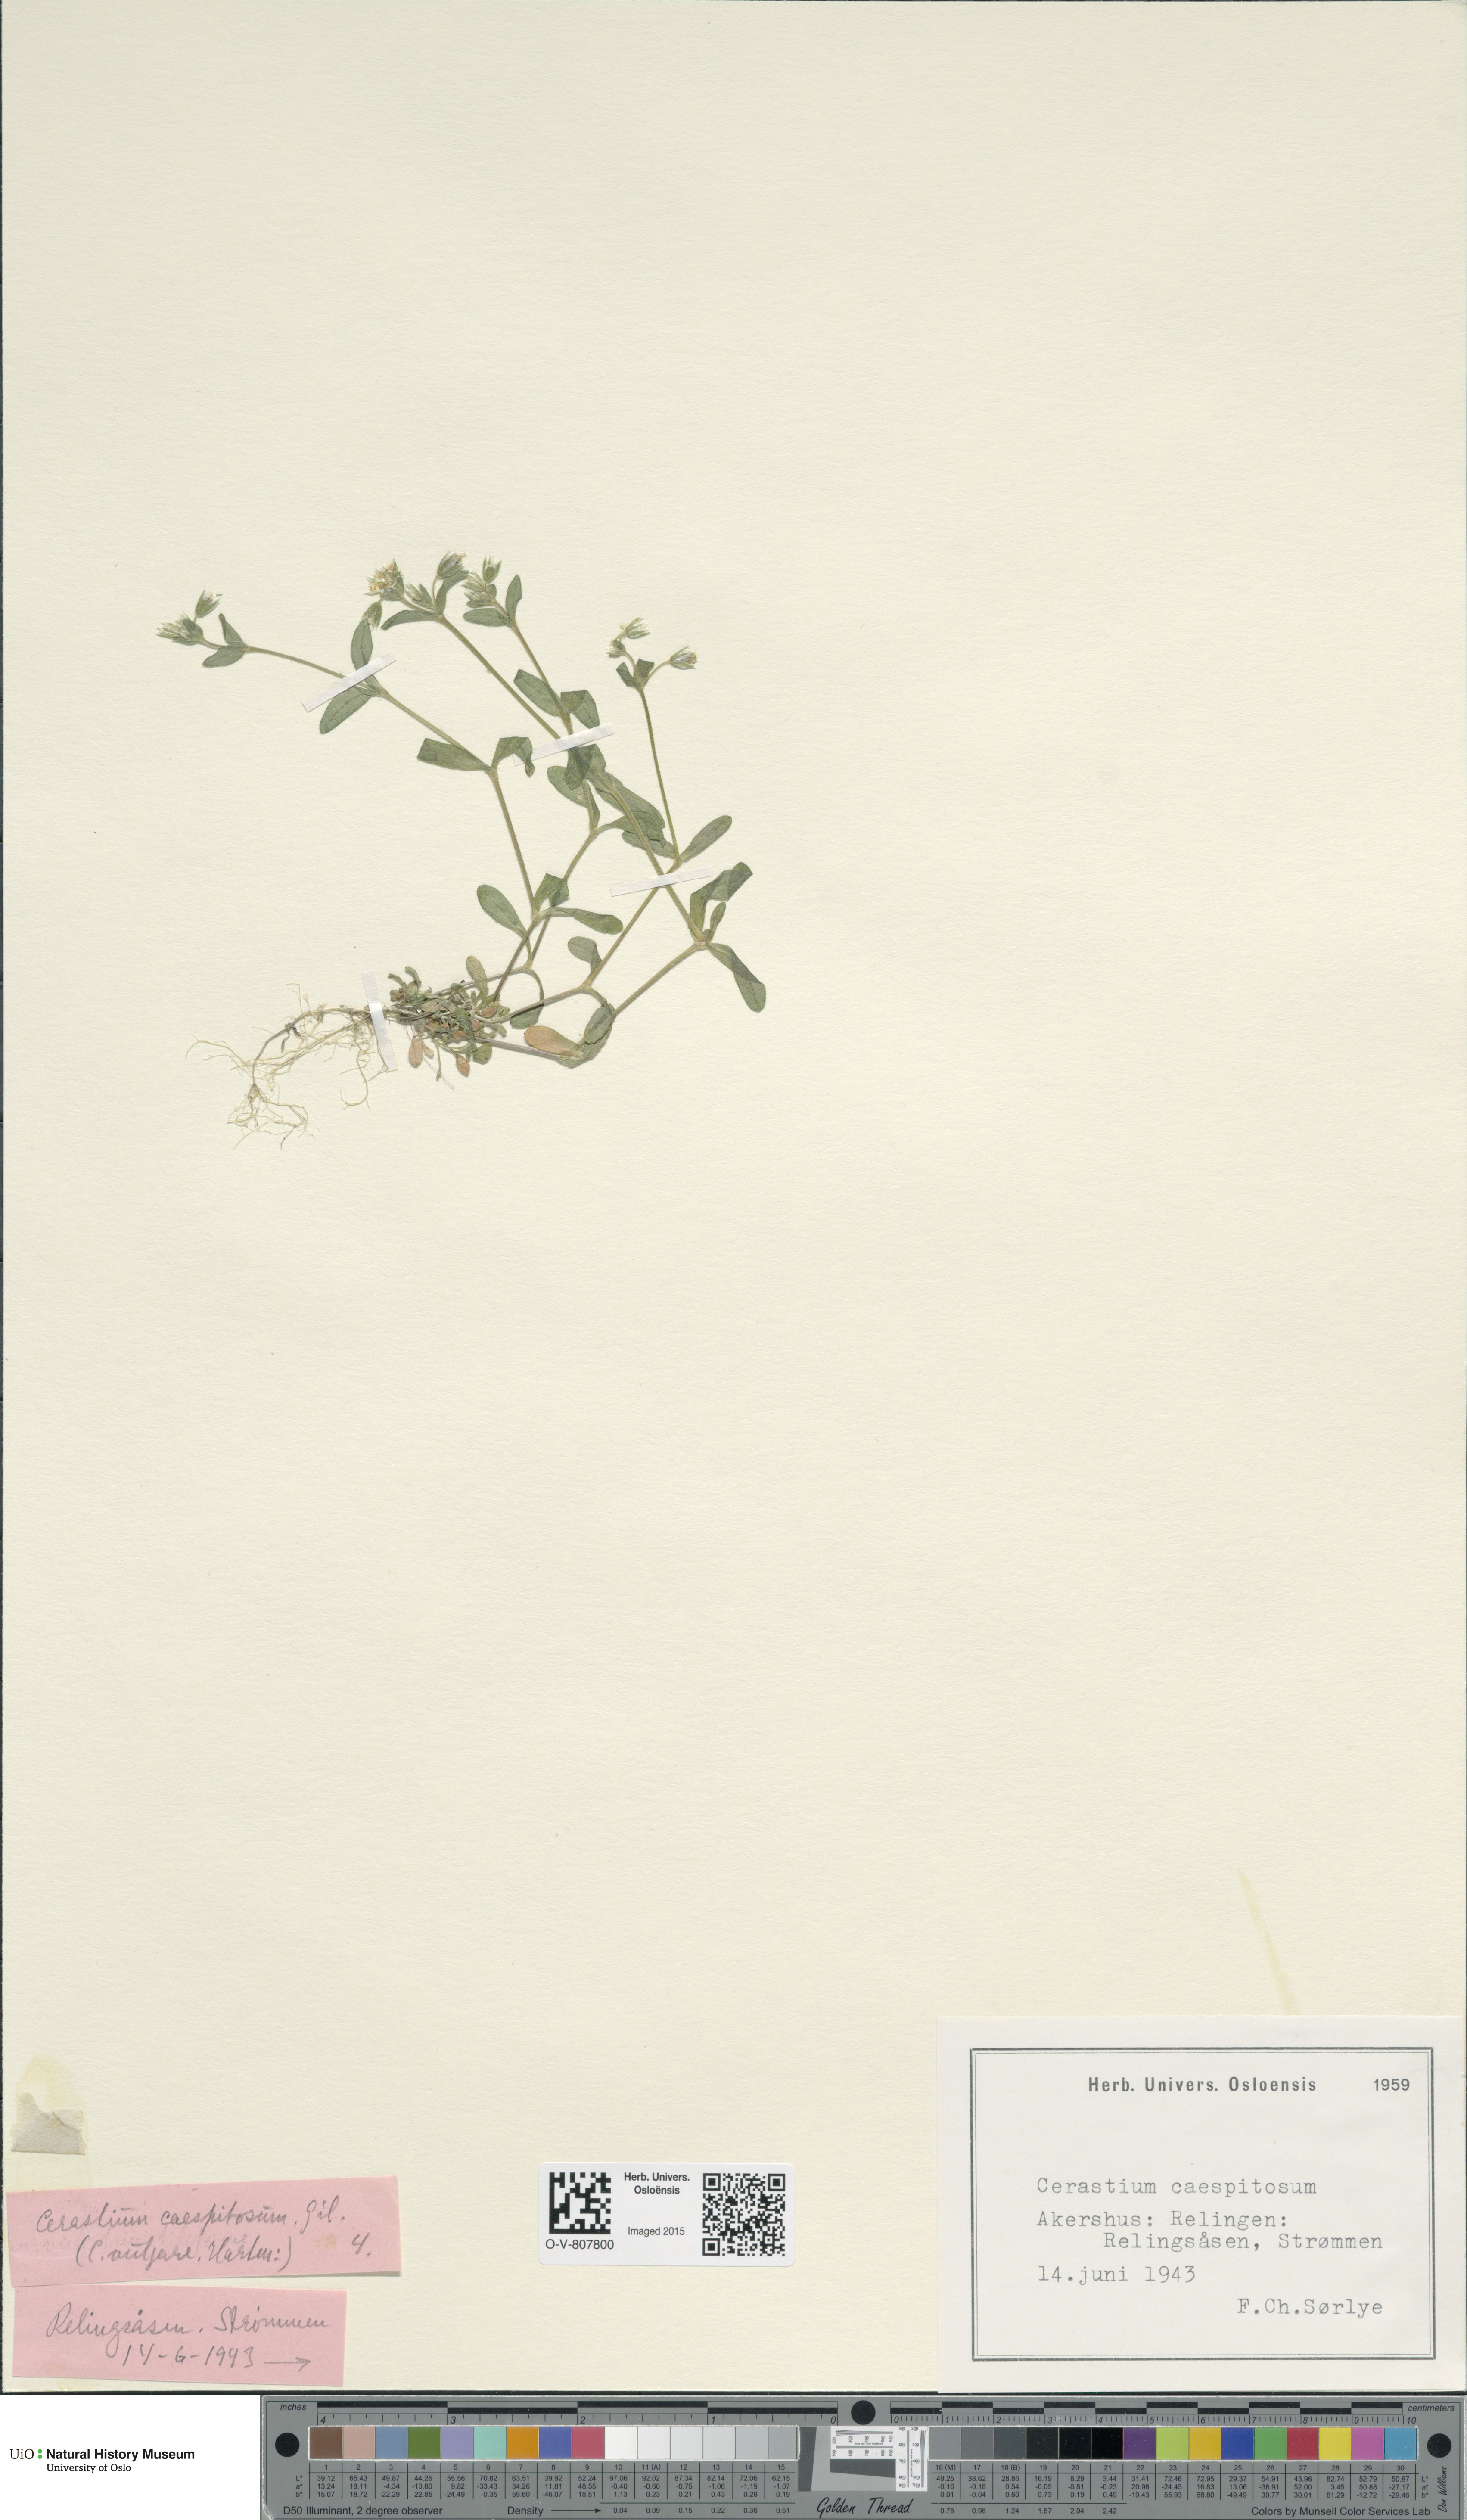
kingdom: Plantae
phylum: Tracheophyta
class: Magnoliopsida
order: Caryophyllales
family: Caryophyllaceae
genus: Cerastium
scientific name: Cerastium holosteoides
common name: Big chickweed
